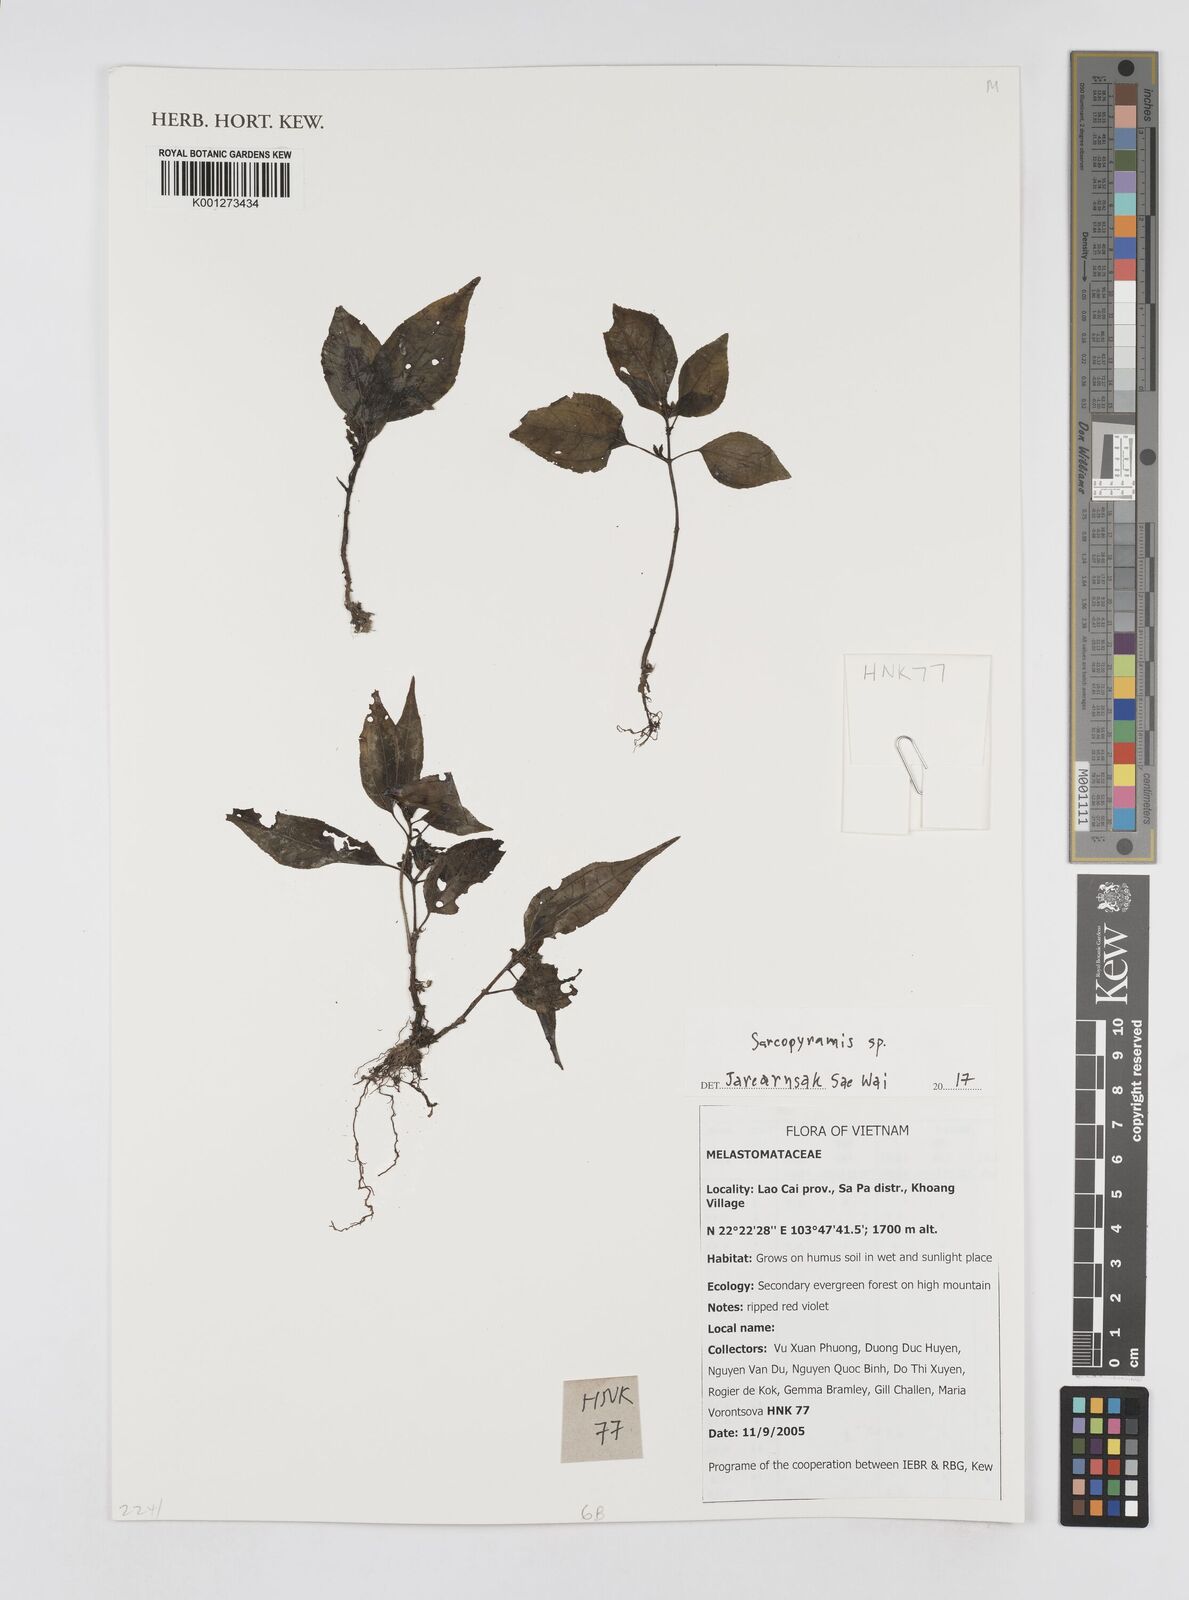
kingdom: Plantae
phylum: Tracheophyta
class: Magnoliopsida
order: Myrtales
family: Melastomataceae
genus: Sarcopyramis
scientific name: Sarcopyramis
